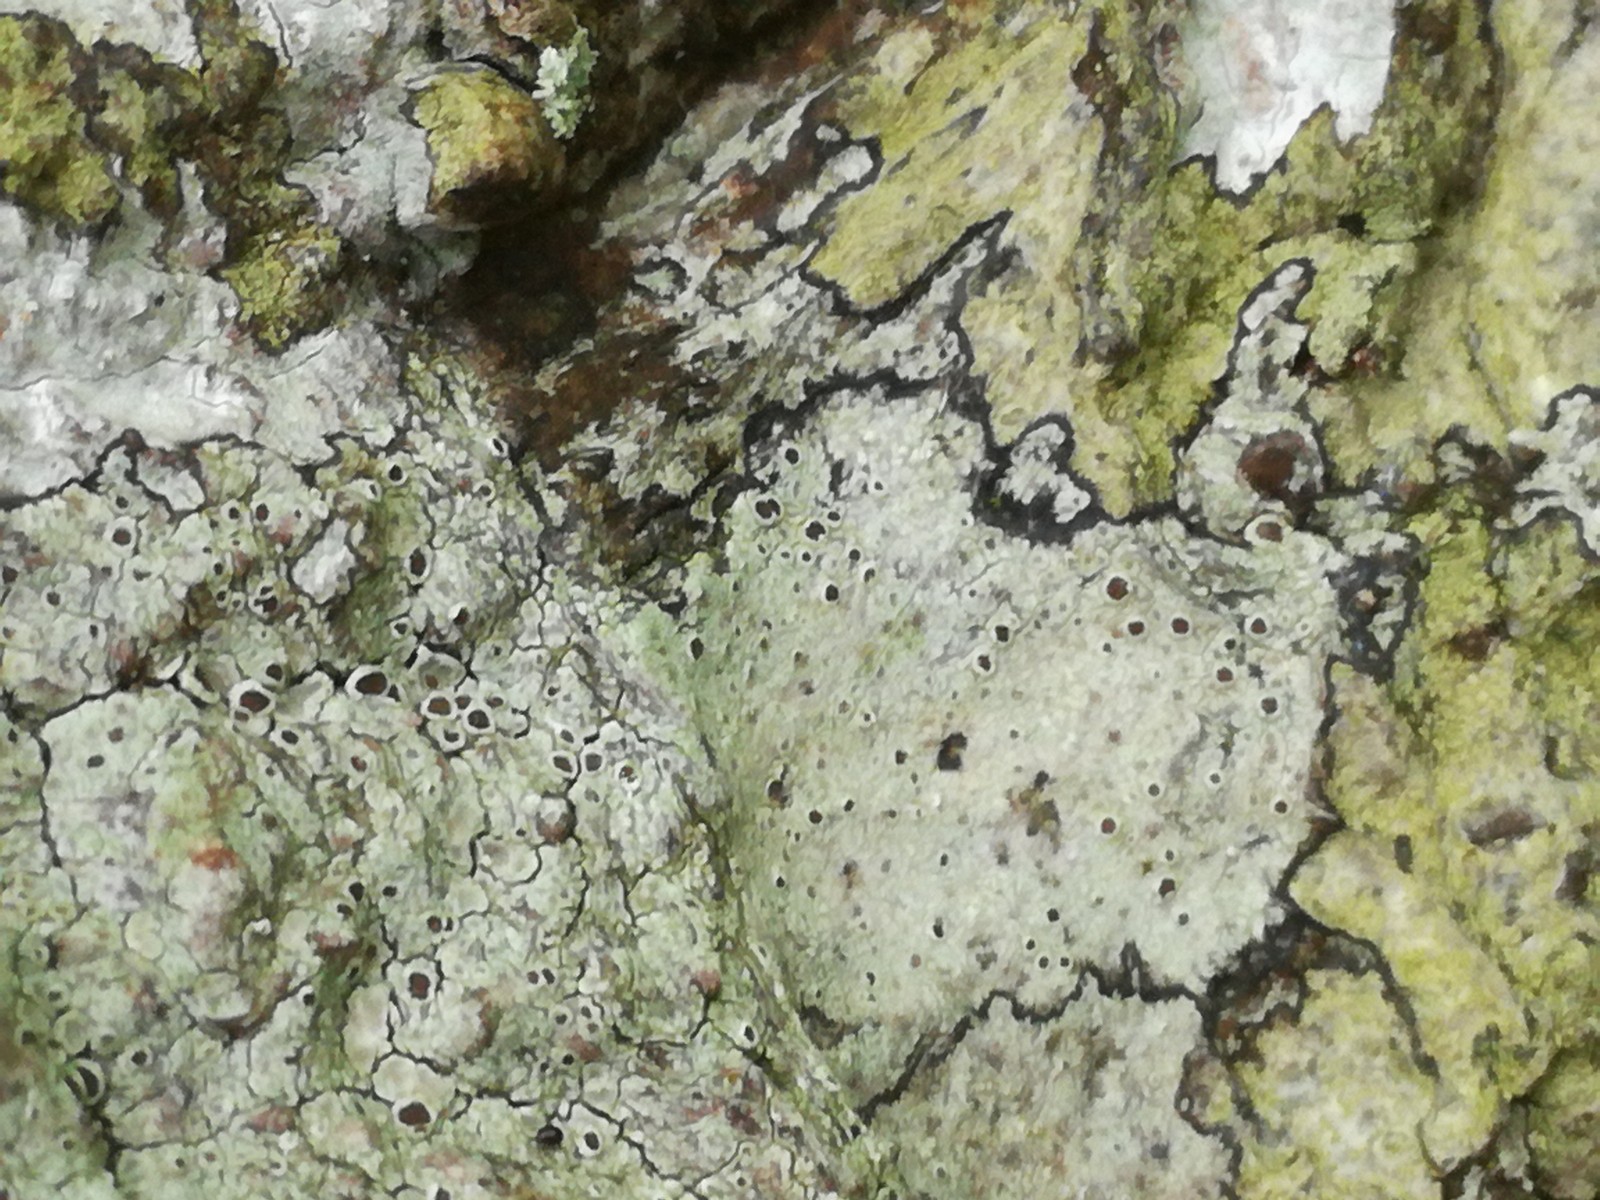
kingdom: Fungi
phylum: Ascomycota
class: Lecanoromycetes
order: Lecanorales
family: Lecanoraceae
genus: Lecanora
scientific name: Lecanora glabrata
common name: bøge-kantskivelav
